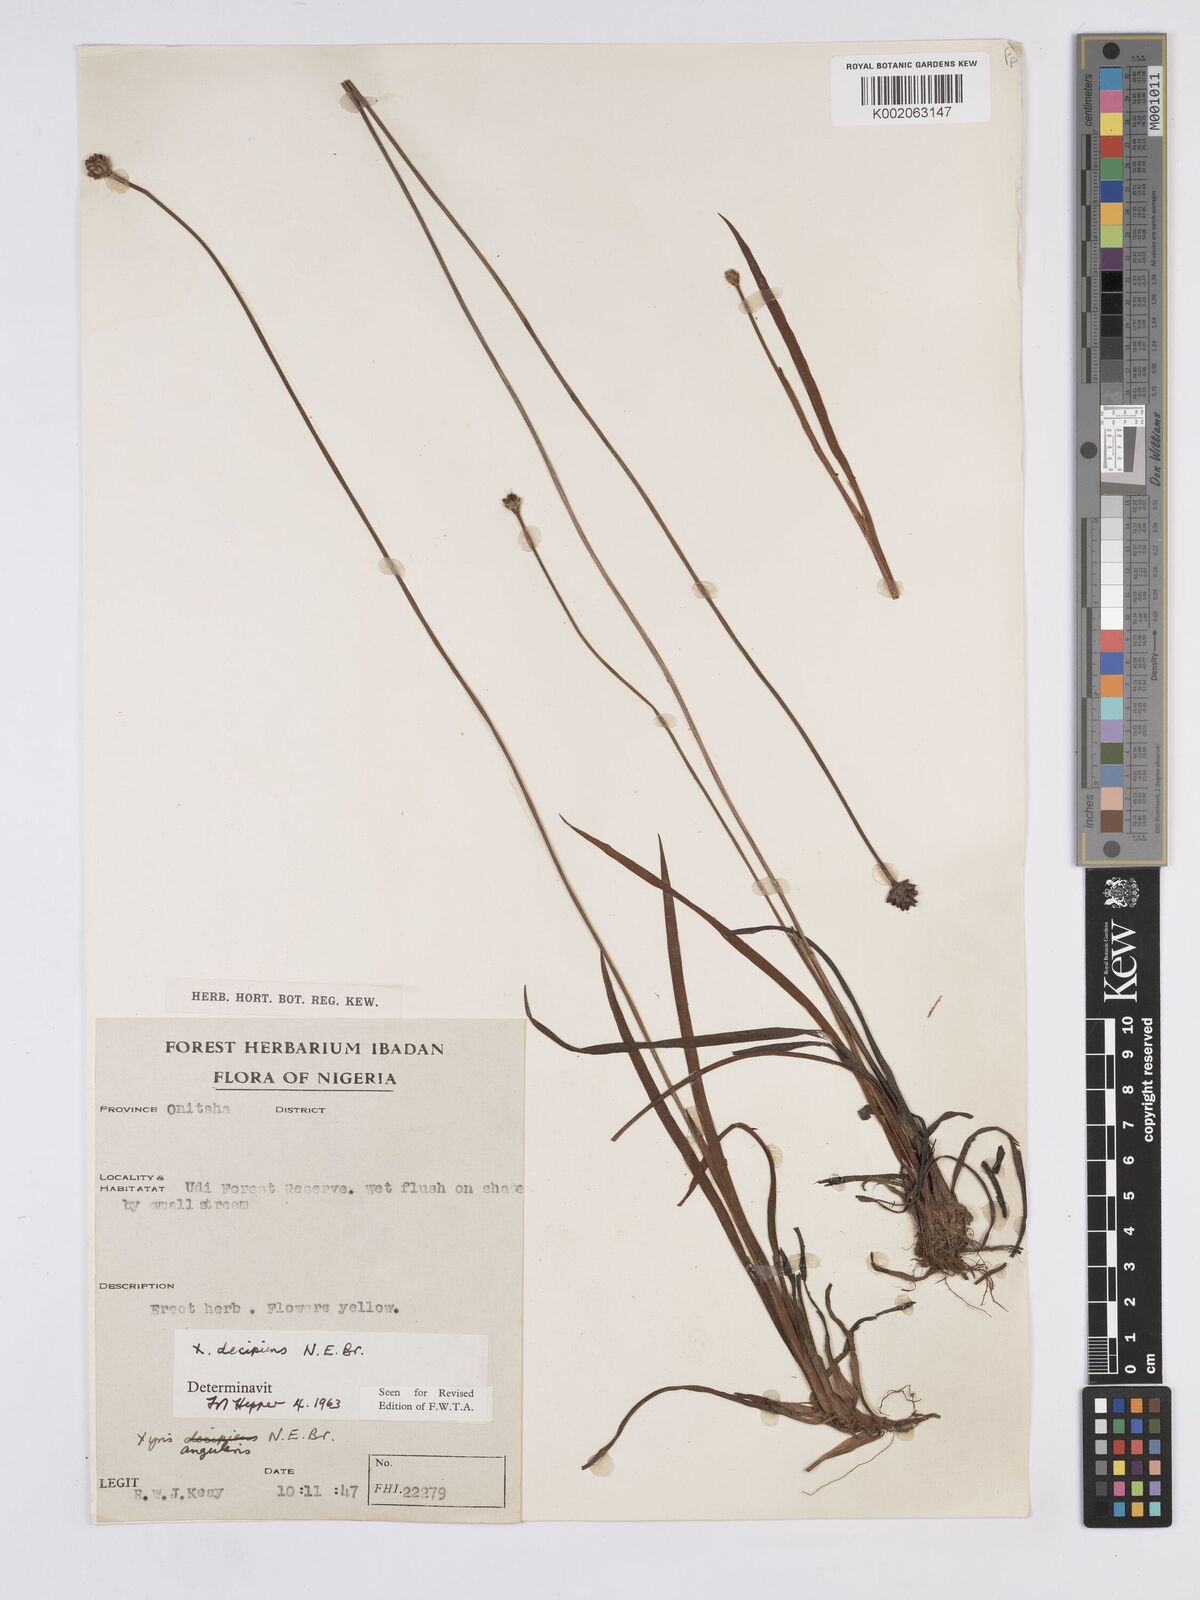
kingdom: Plantae
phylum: Tracheophyta
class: Liliopsida
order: Poales
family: Xyridaceae
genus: Xyris
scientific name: Xyris decipiens
